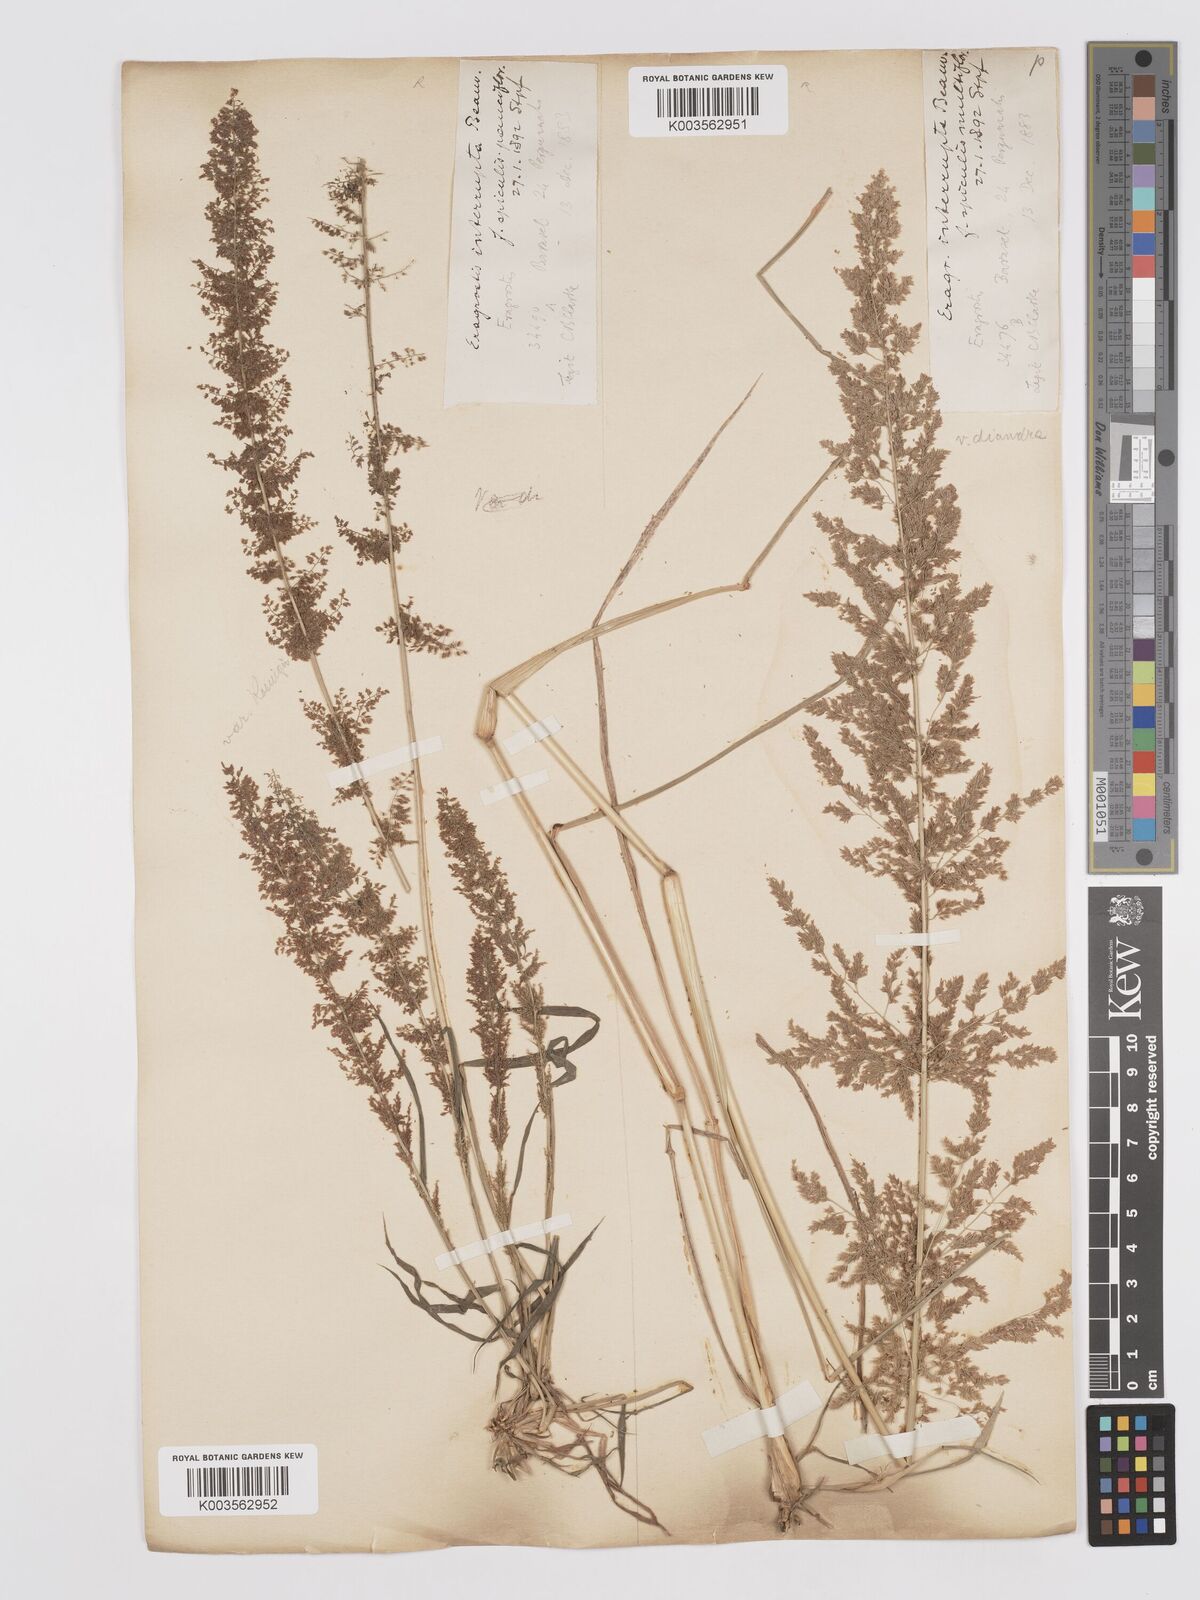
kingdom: Plantae
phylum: Tracheophyta
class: Liliopsida
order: Poales
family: Poaceae
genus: Eragrostis
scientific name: Eragrostis japonica
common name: Pond lovegrass
